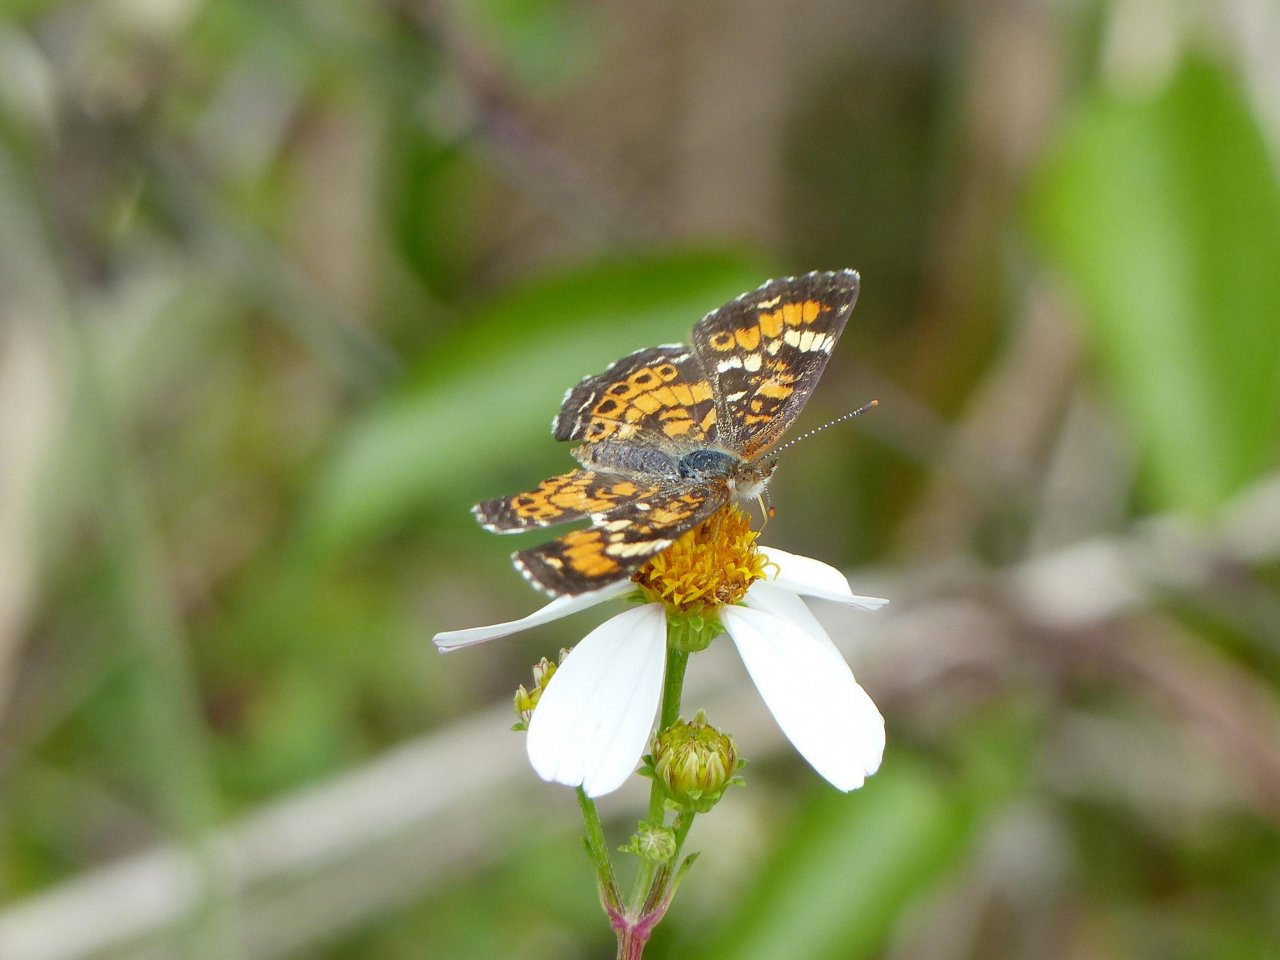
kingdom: Animalia
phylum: Arthropoda
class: Insecta
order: Lepidoptera
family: Nymphalidae
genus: Phyciodes
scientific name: Phyciodes phaon
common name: Phaon Crescent
